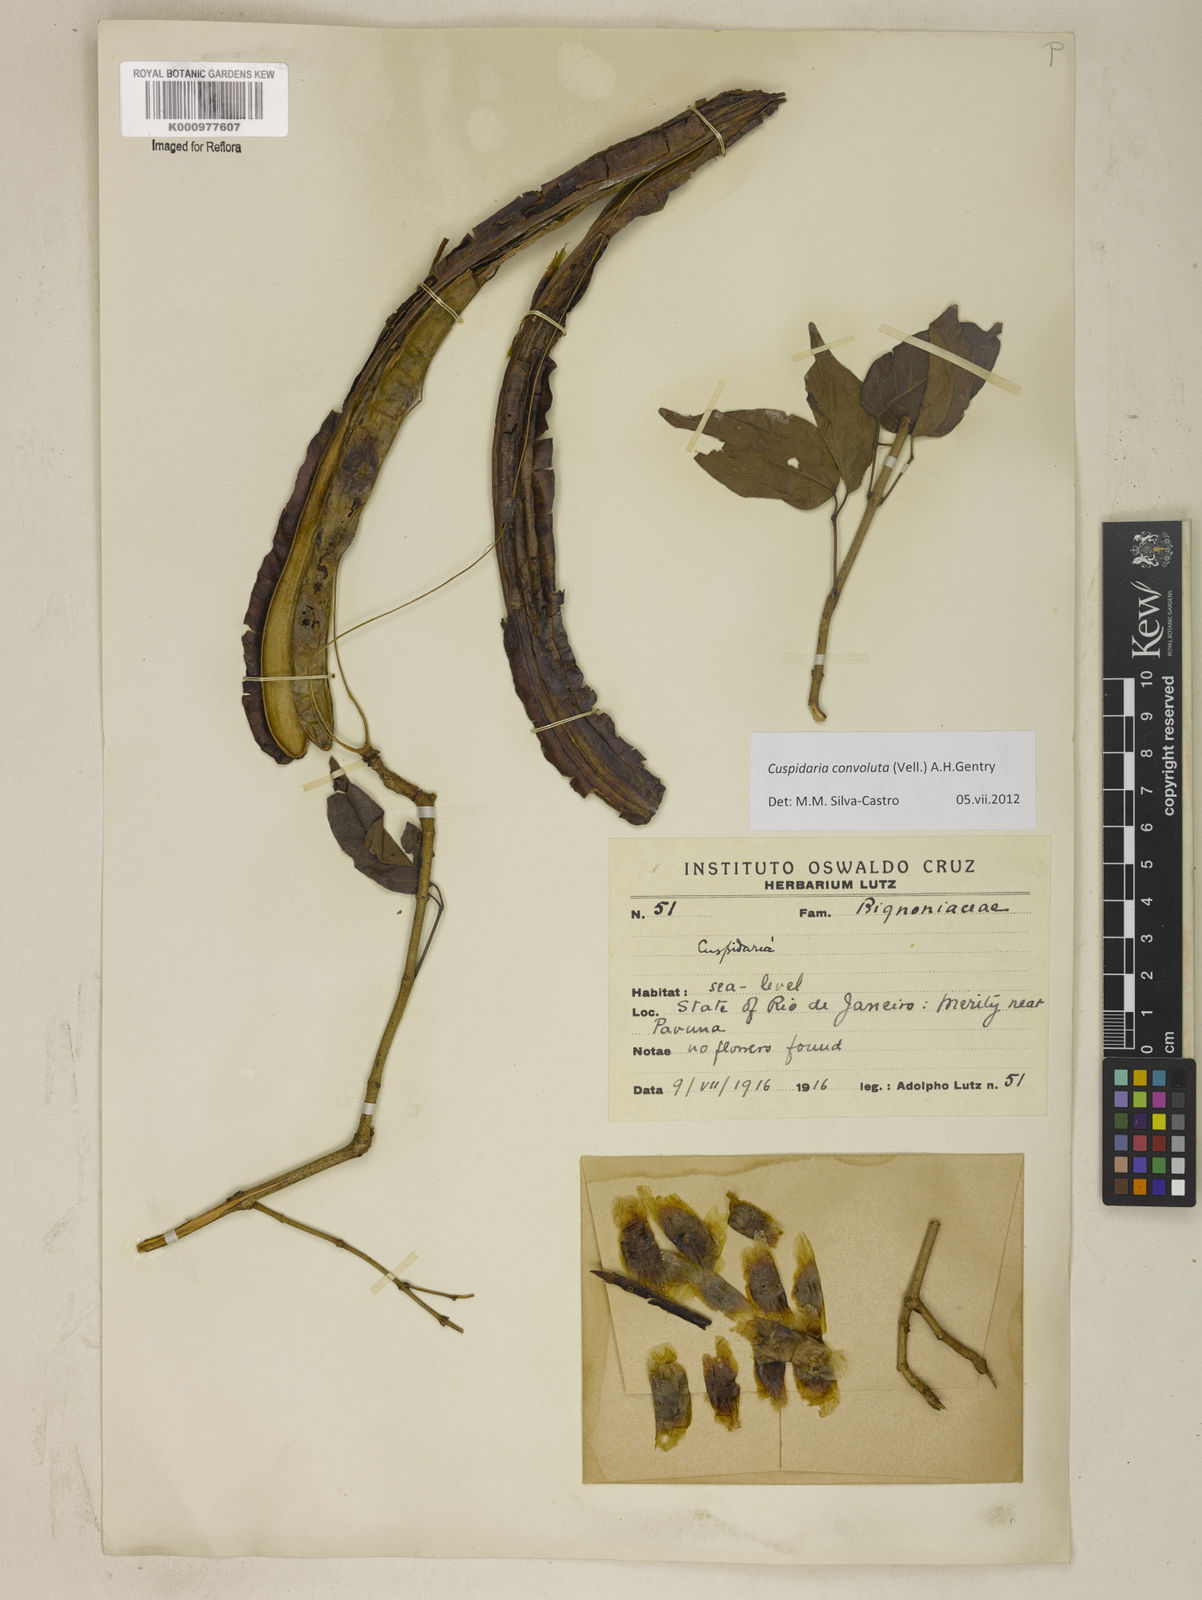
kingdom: Plantae
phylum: Tracheophyta
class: Magnoliopsida
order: Lamiales
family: Bignoniaceae
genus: Cuspidaria
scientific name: Cuspidaria convoluta
